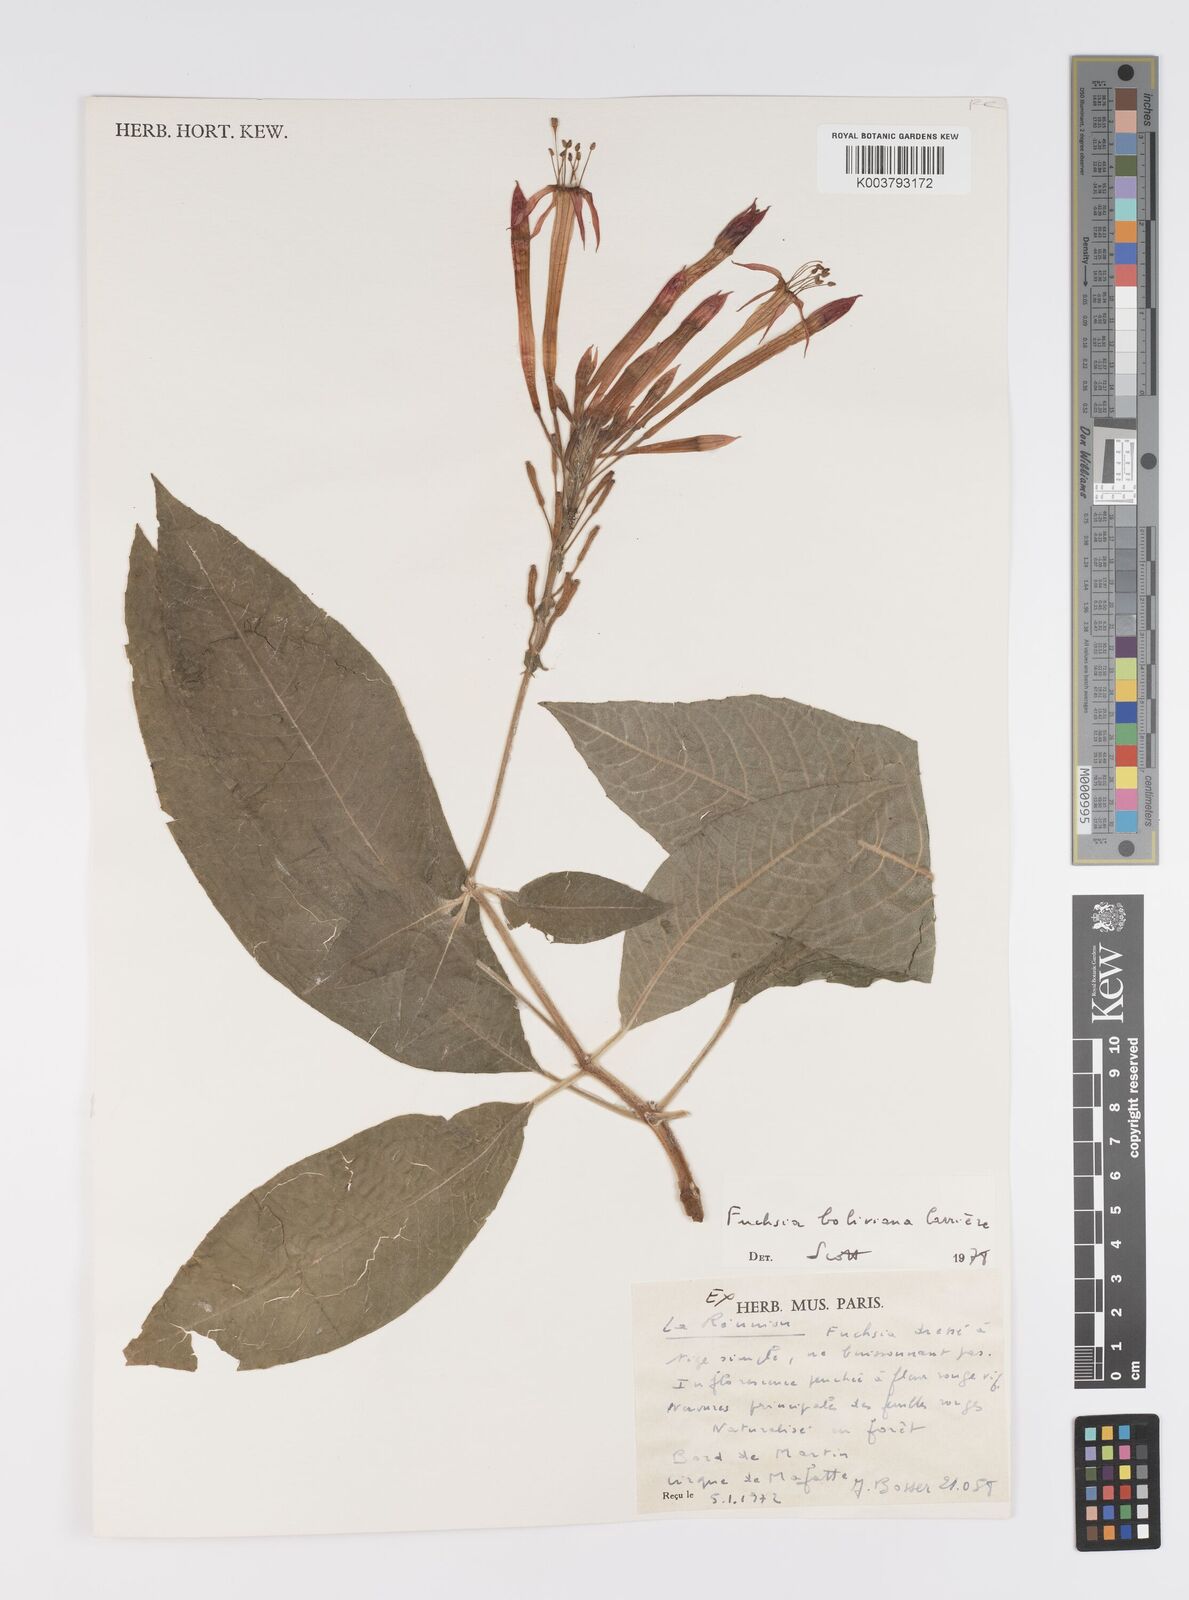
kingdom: Plantae
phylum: Tracheophyta
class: Magnoliopsida
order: Myrtales
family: Onagraceae
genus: Fuchsia
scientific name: Fuchsia boliviana
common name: Bolivian fuchsia
